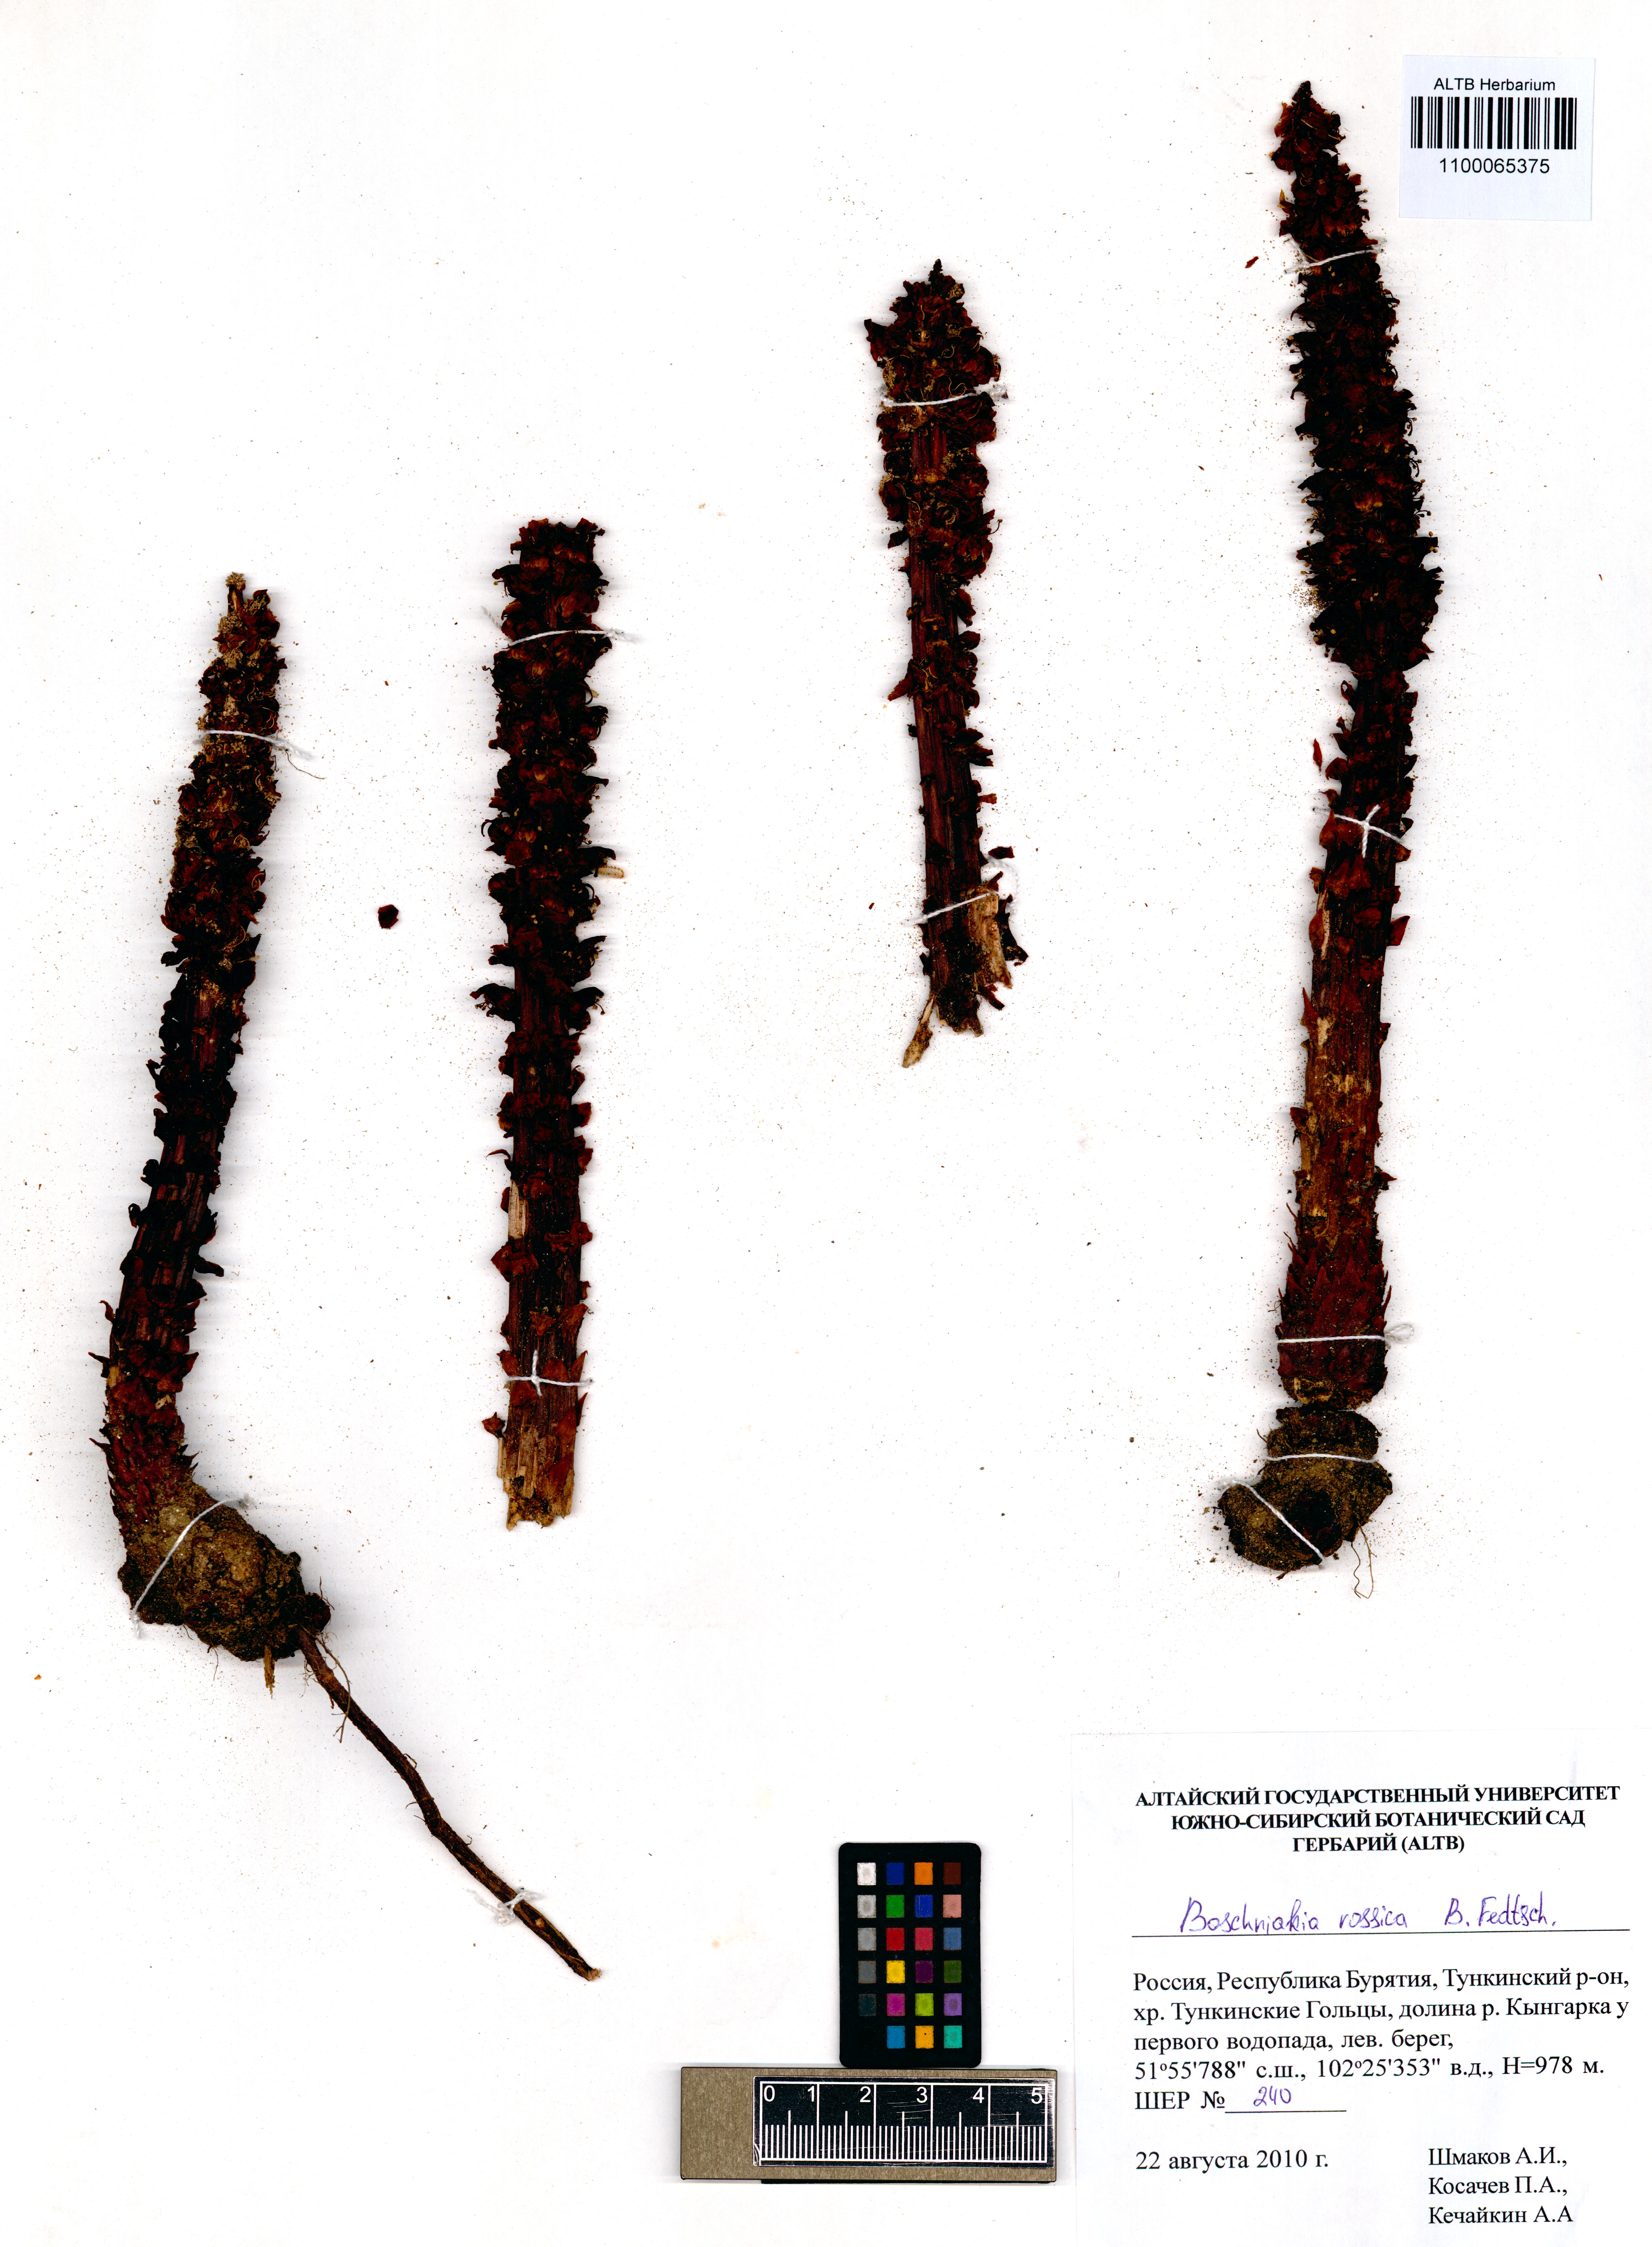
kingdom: Plantae
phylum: Tracheophyta
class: Magnoliopsida
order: Lamiales
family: Orobanchaceae
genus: Boschniakia
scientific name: Boschniakia rossica
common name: Poque
